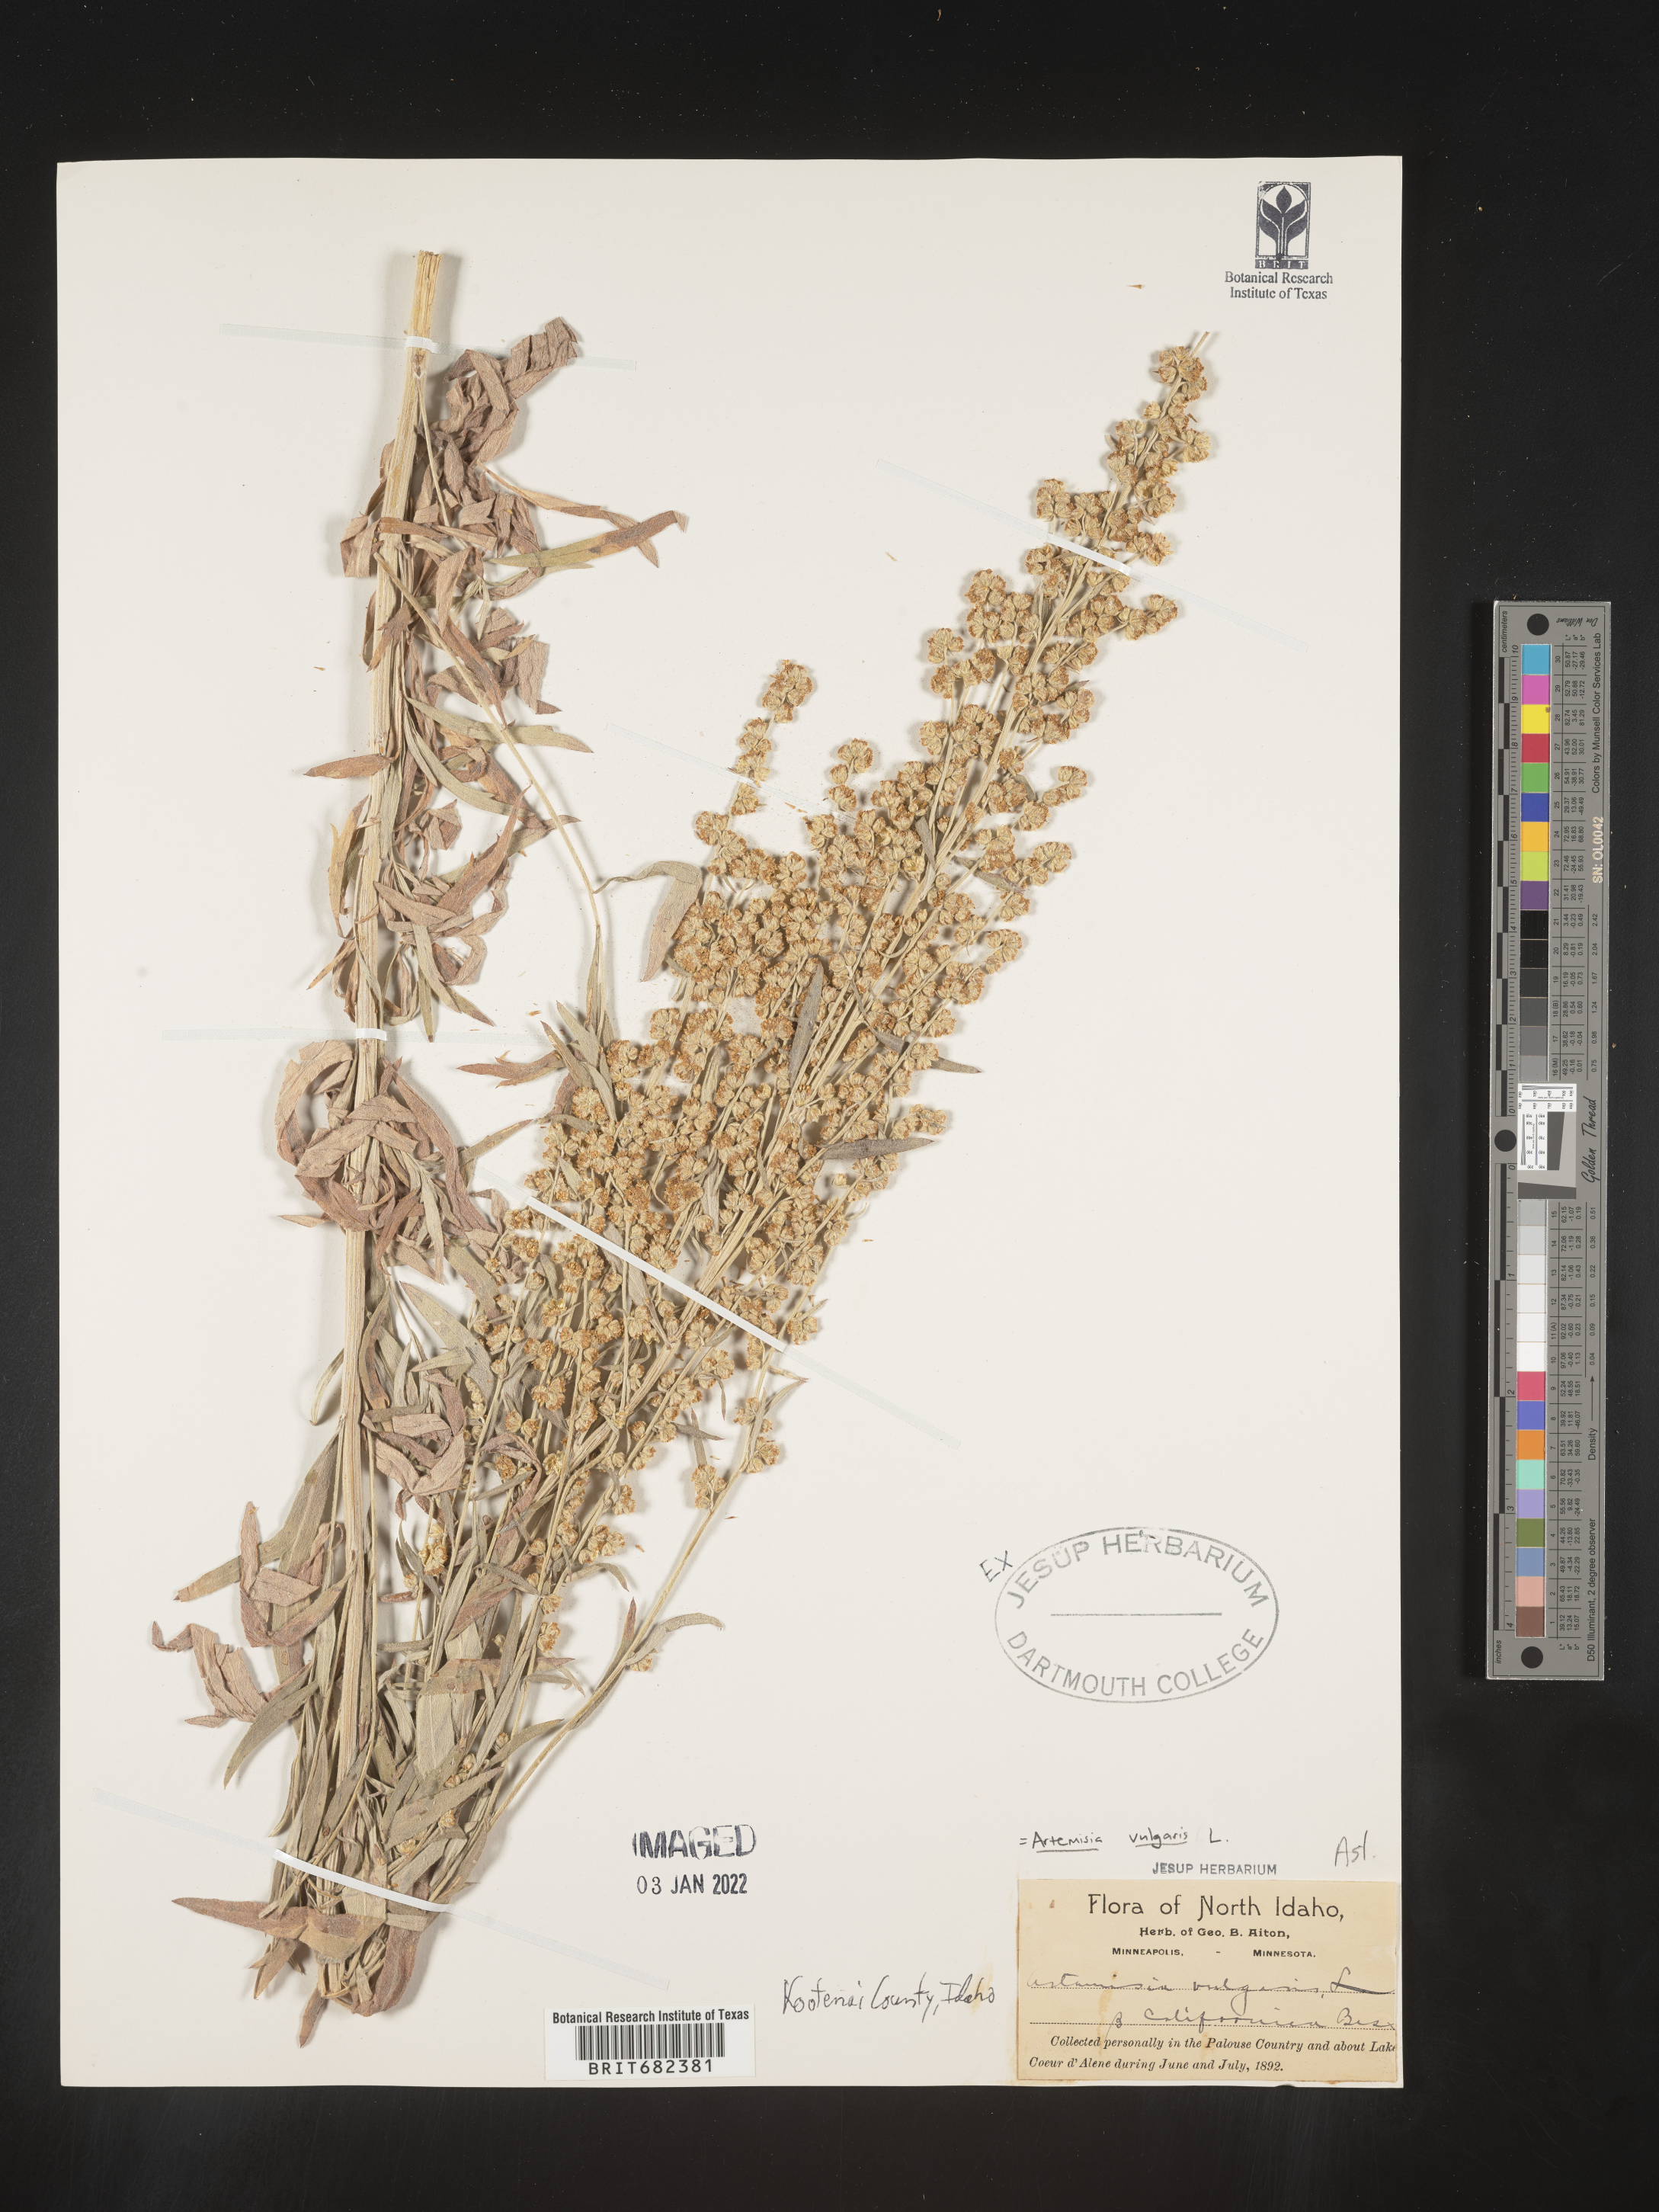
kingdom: Plantae
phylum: Tracheophyta
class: Magnoliopsida
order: Asterales
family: Asteraceae
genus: Artemisia
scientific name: Artemisia vulgaris
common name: Mugwort
